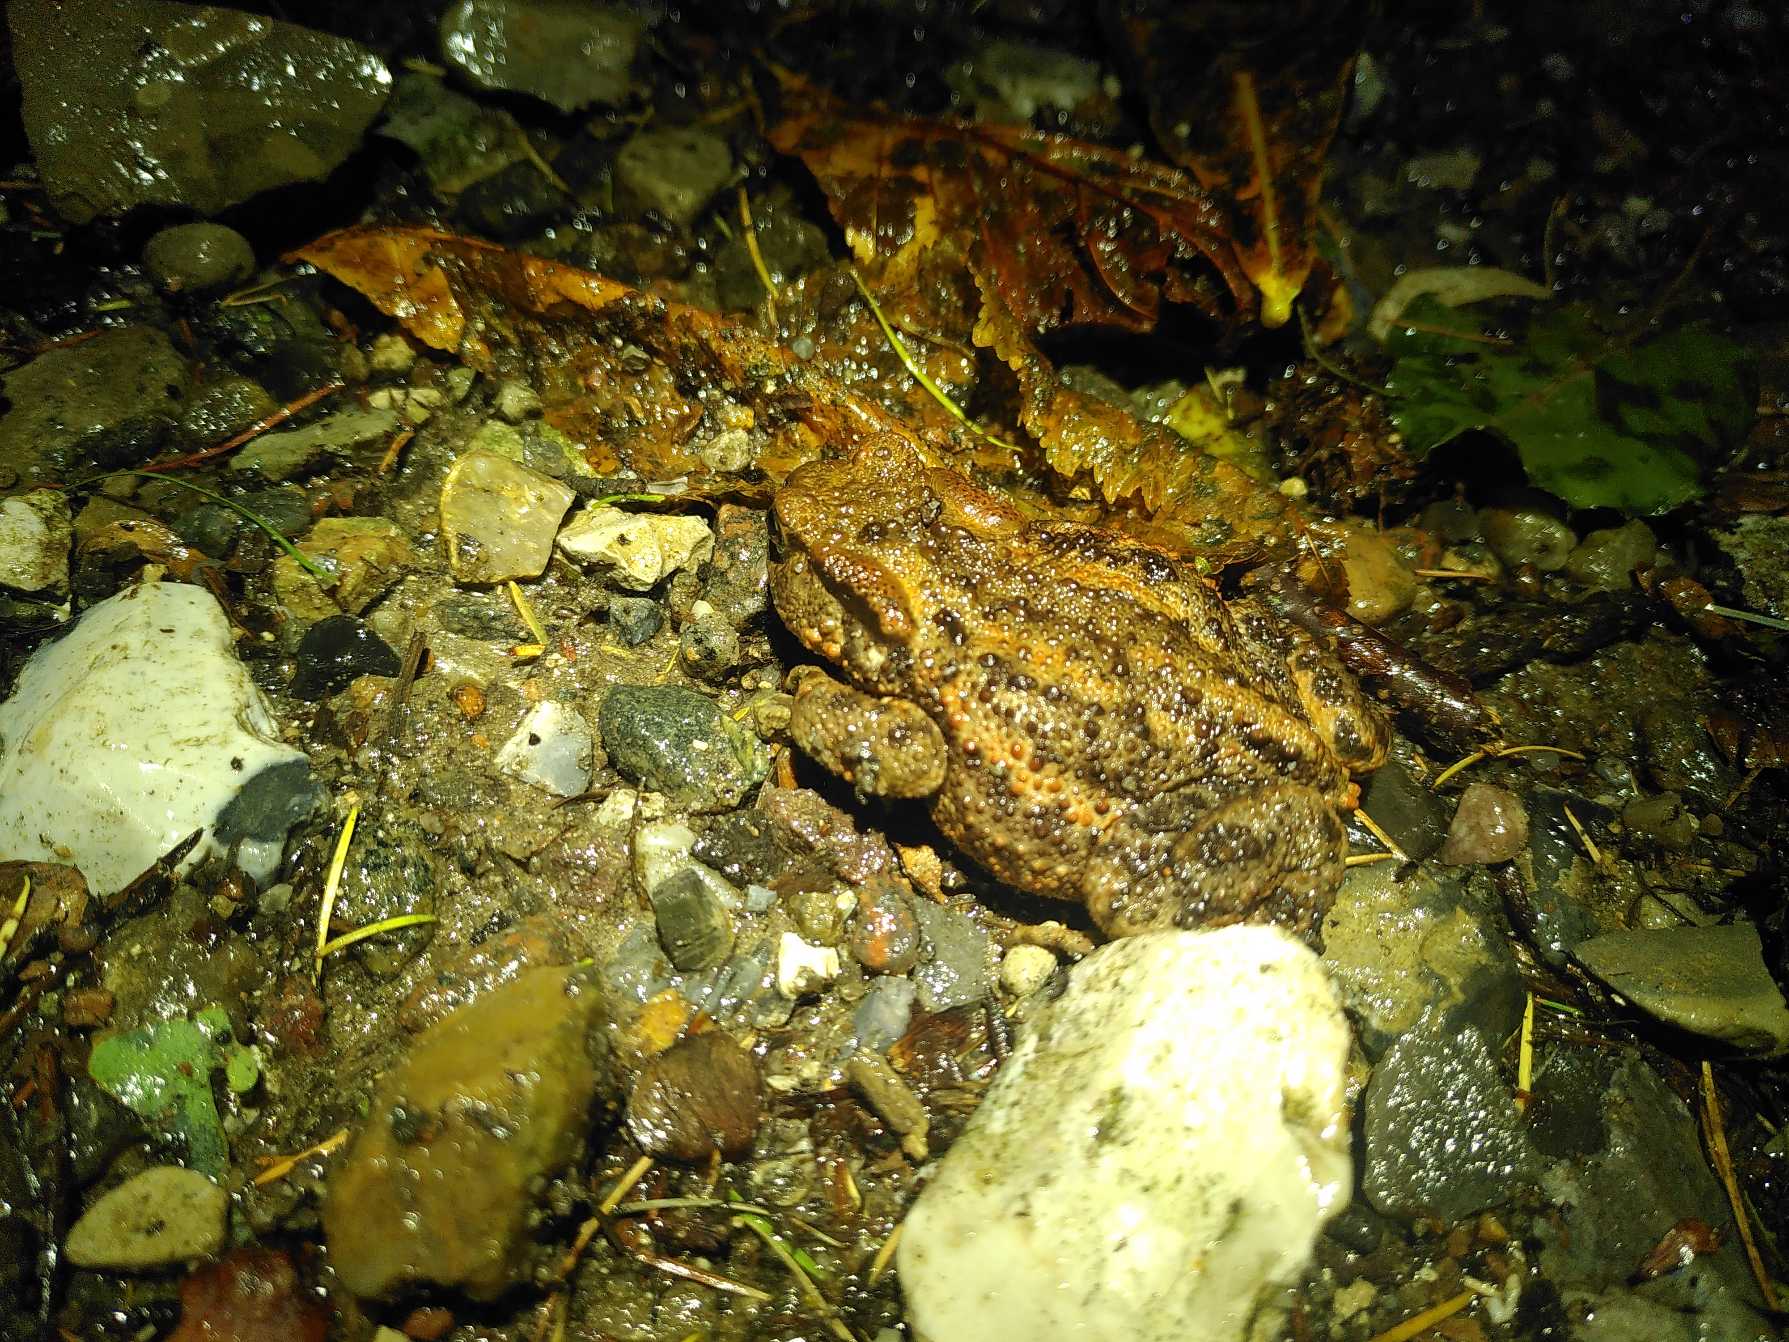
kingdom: Animalia
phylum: Chordata
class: Amphibia
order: Anura
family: Bufonidae
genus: Bufo
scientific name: Bufo bufo
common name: Skrubtudse
